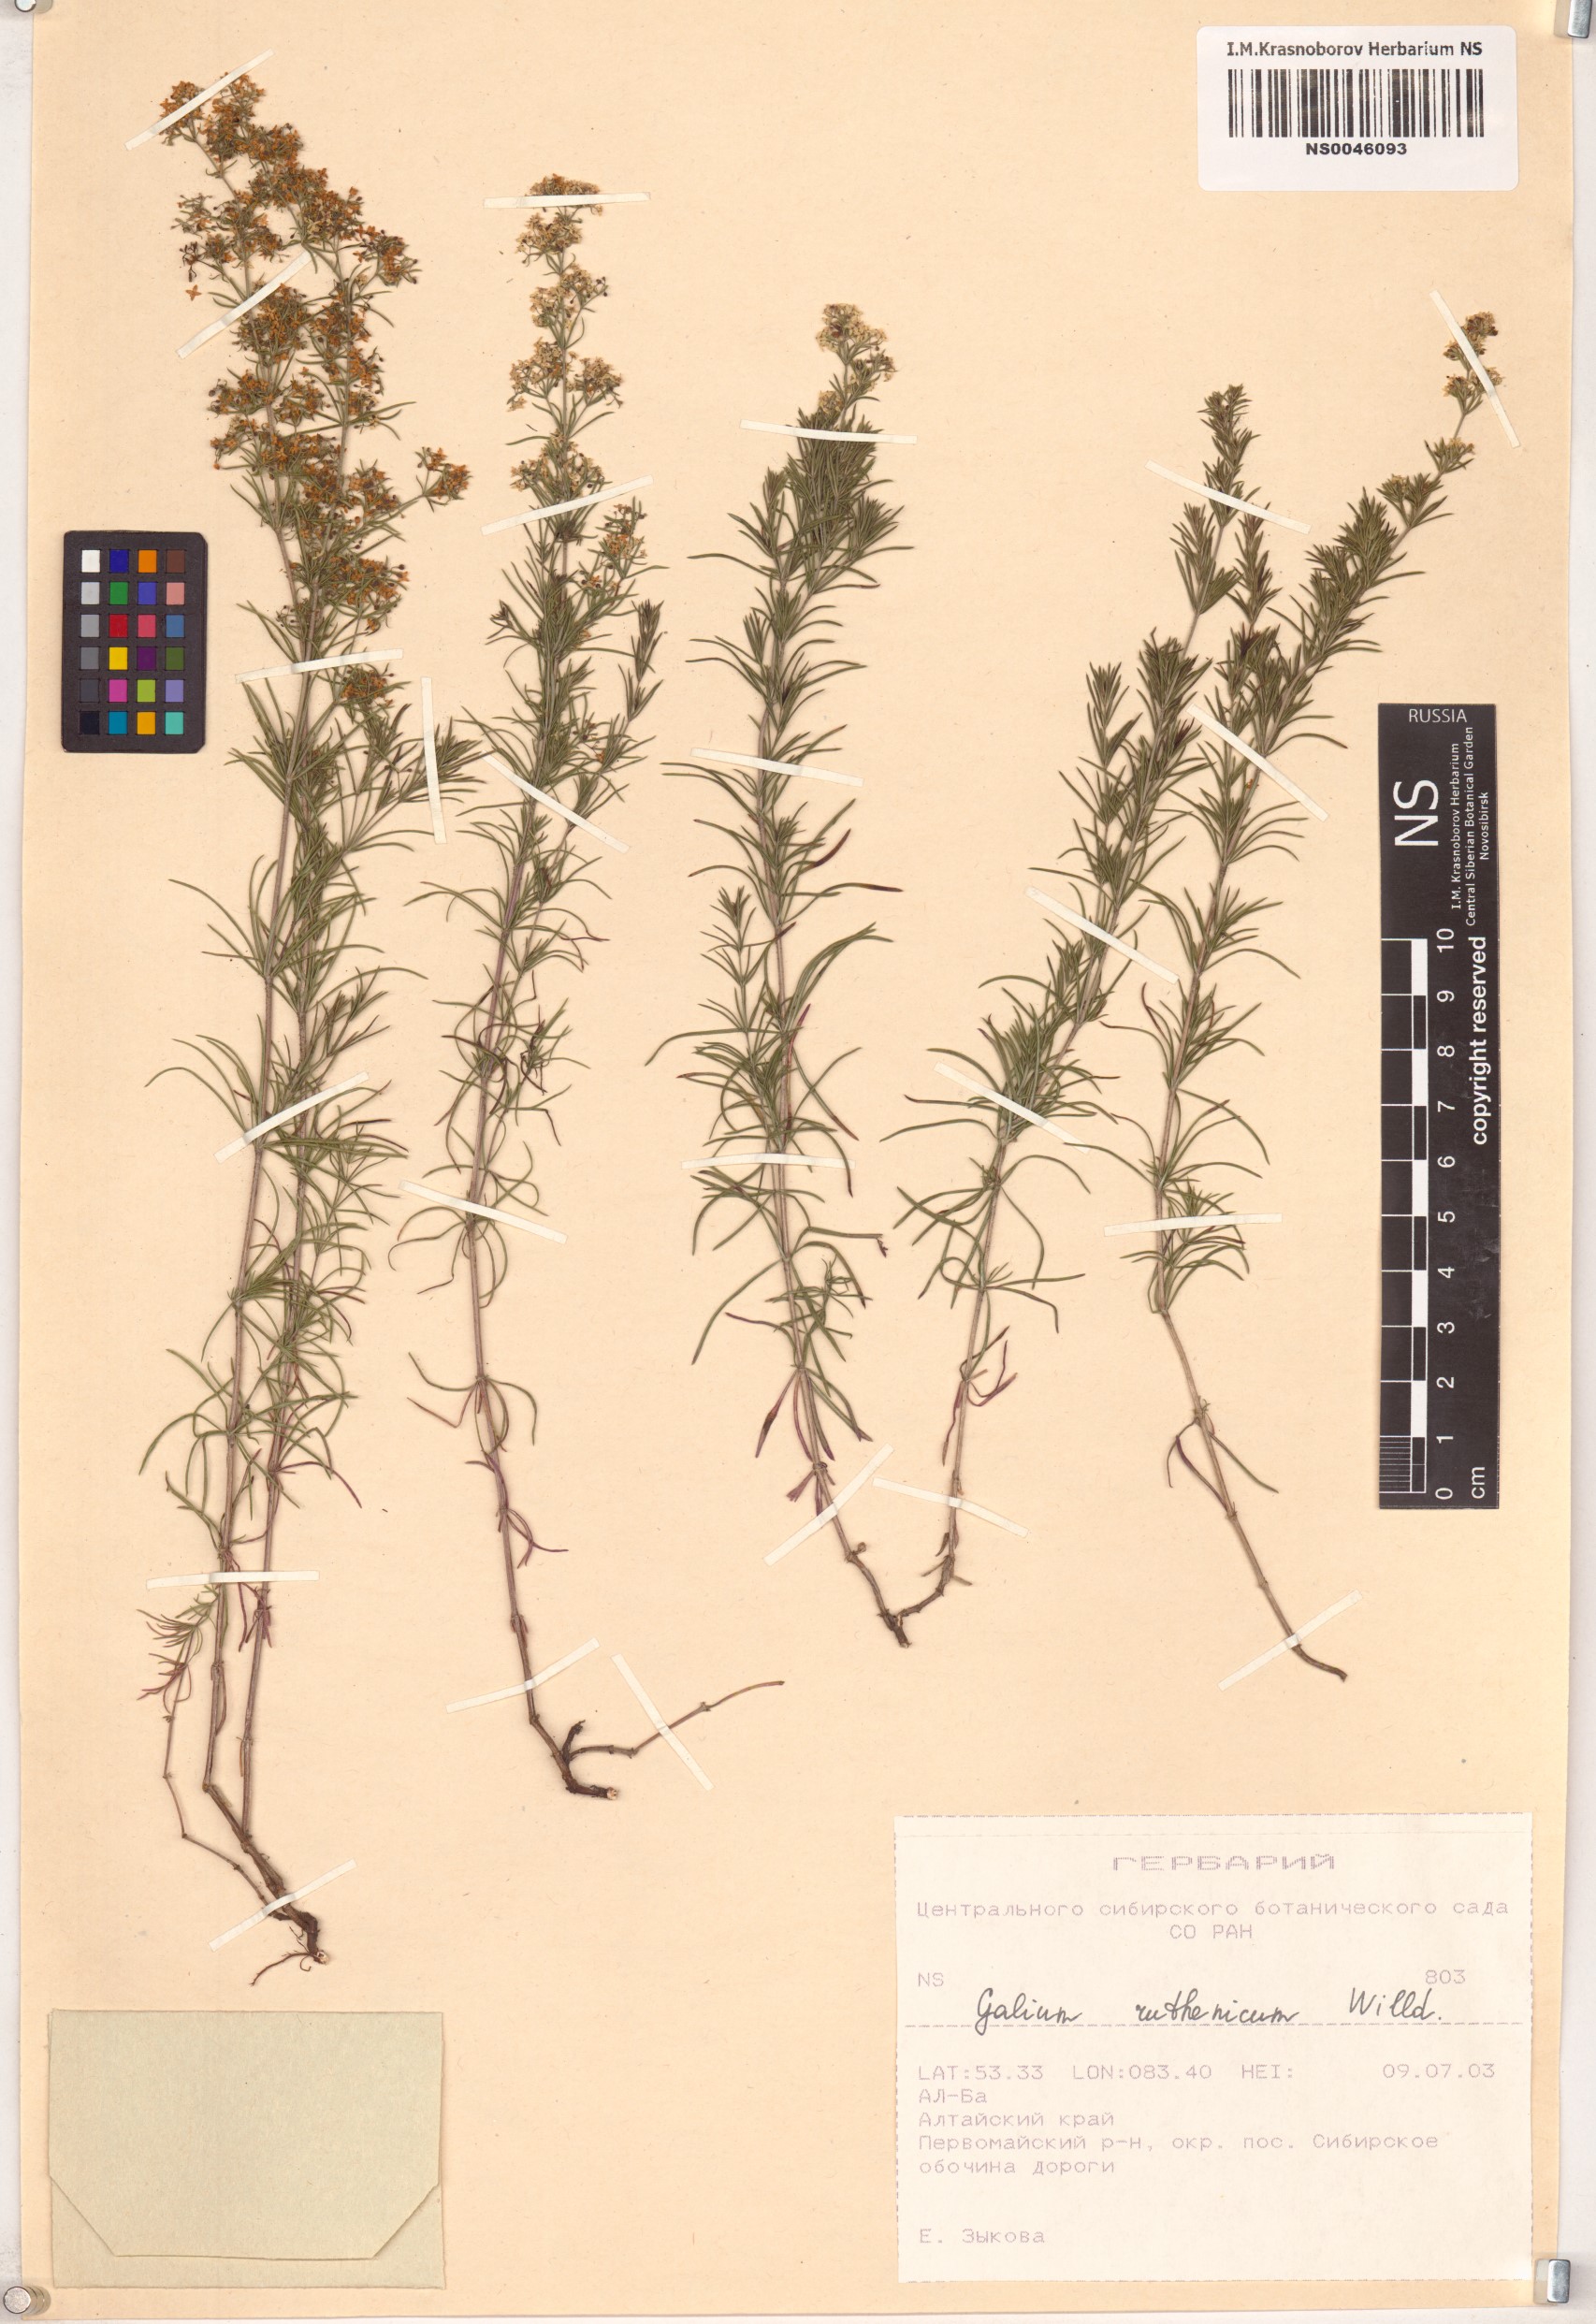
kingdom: Plantae
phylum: Tracheophyta
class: Magnoliopsida
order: Gentianales
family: Rubiaceae
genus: Galium
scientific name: Galium verum
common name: Lady's bedstraw
